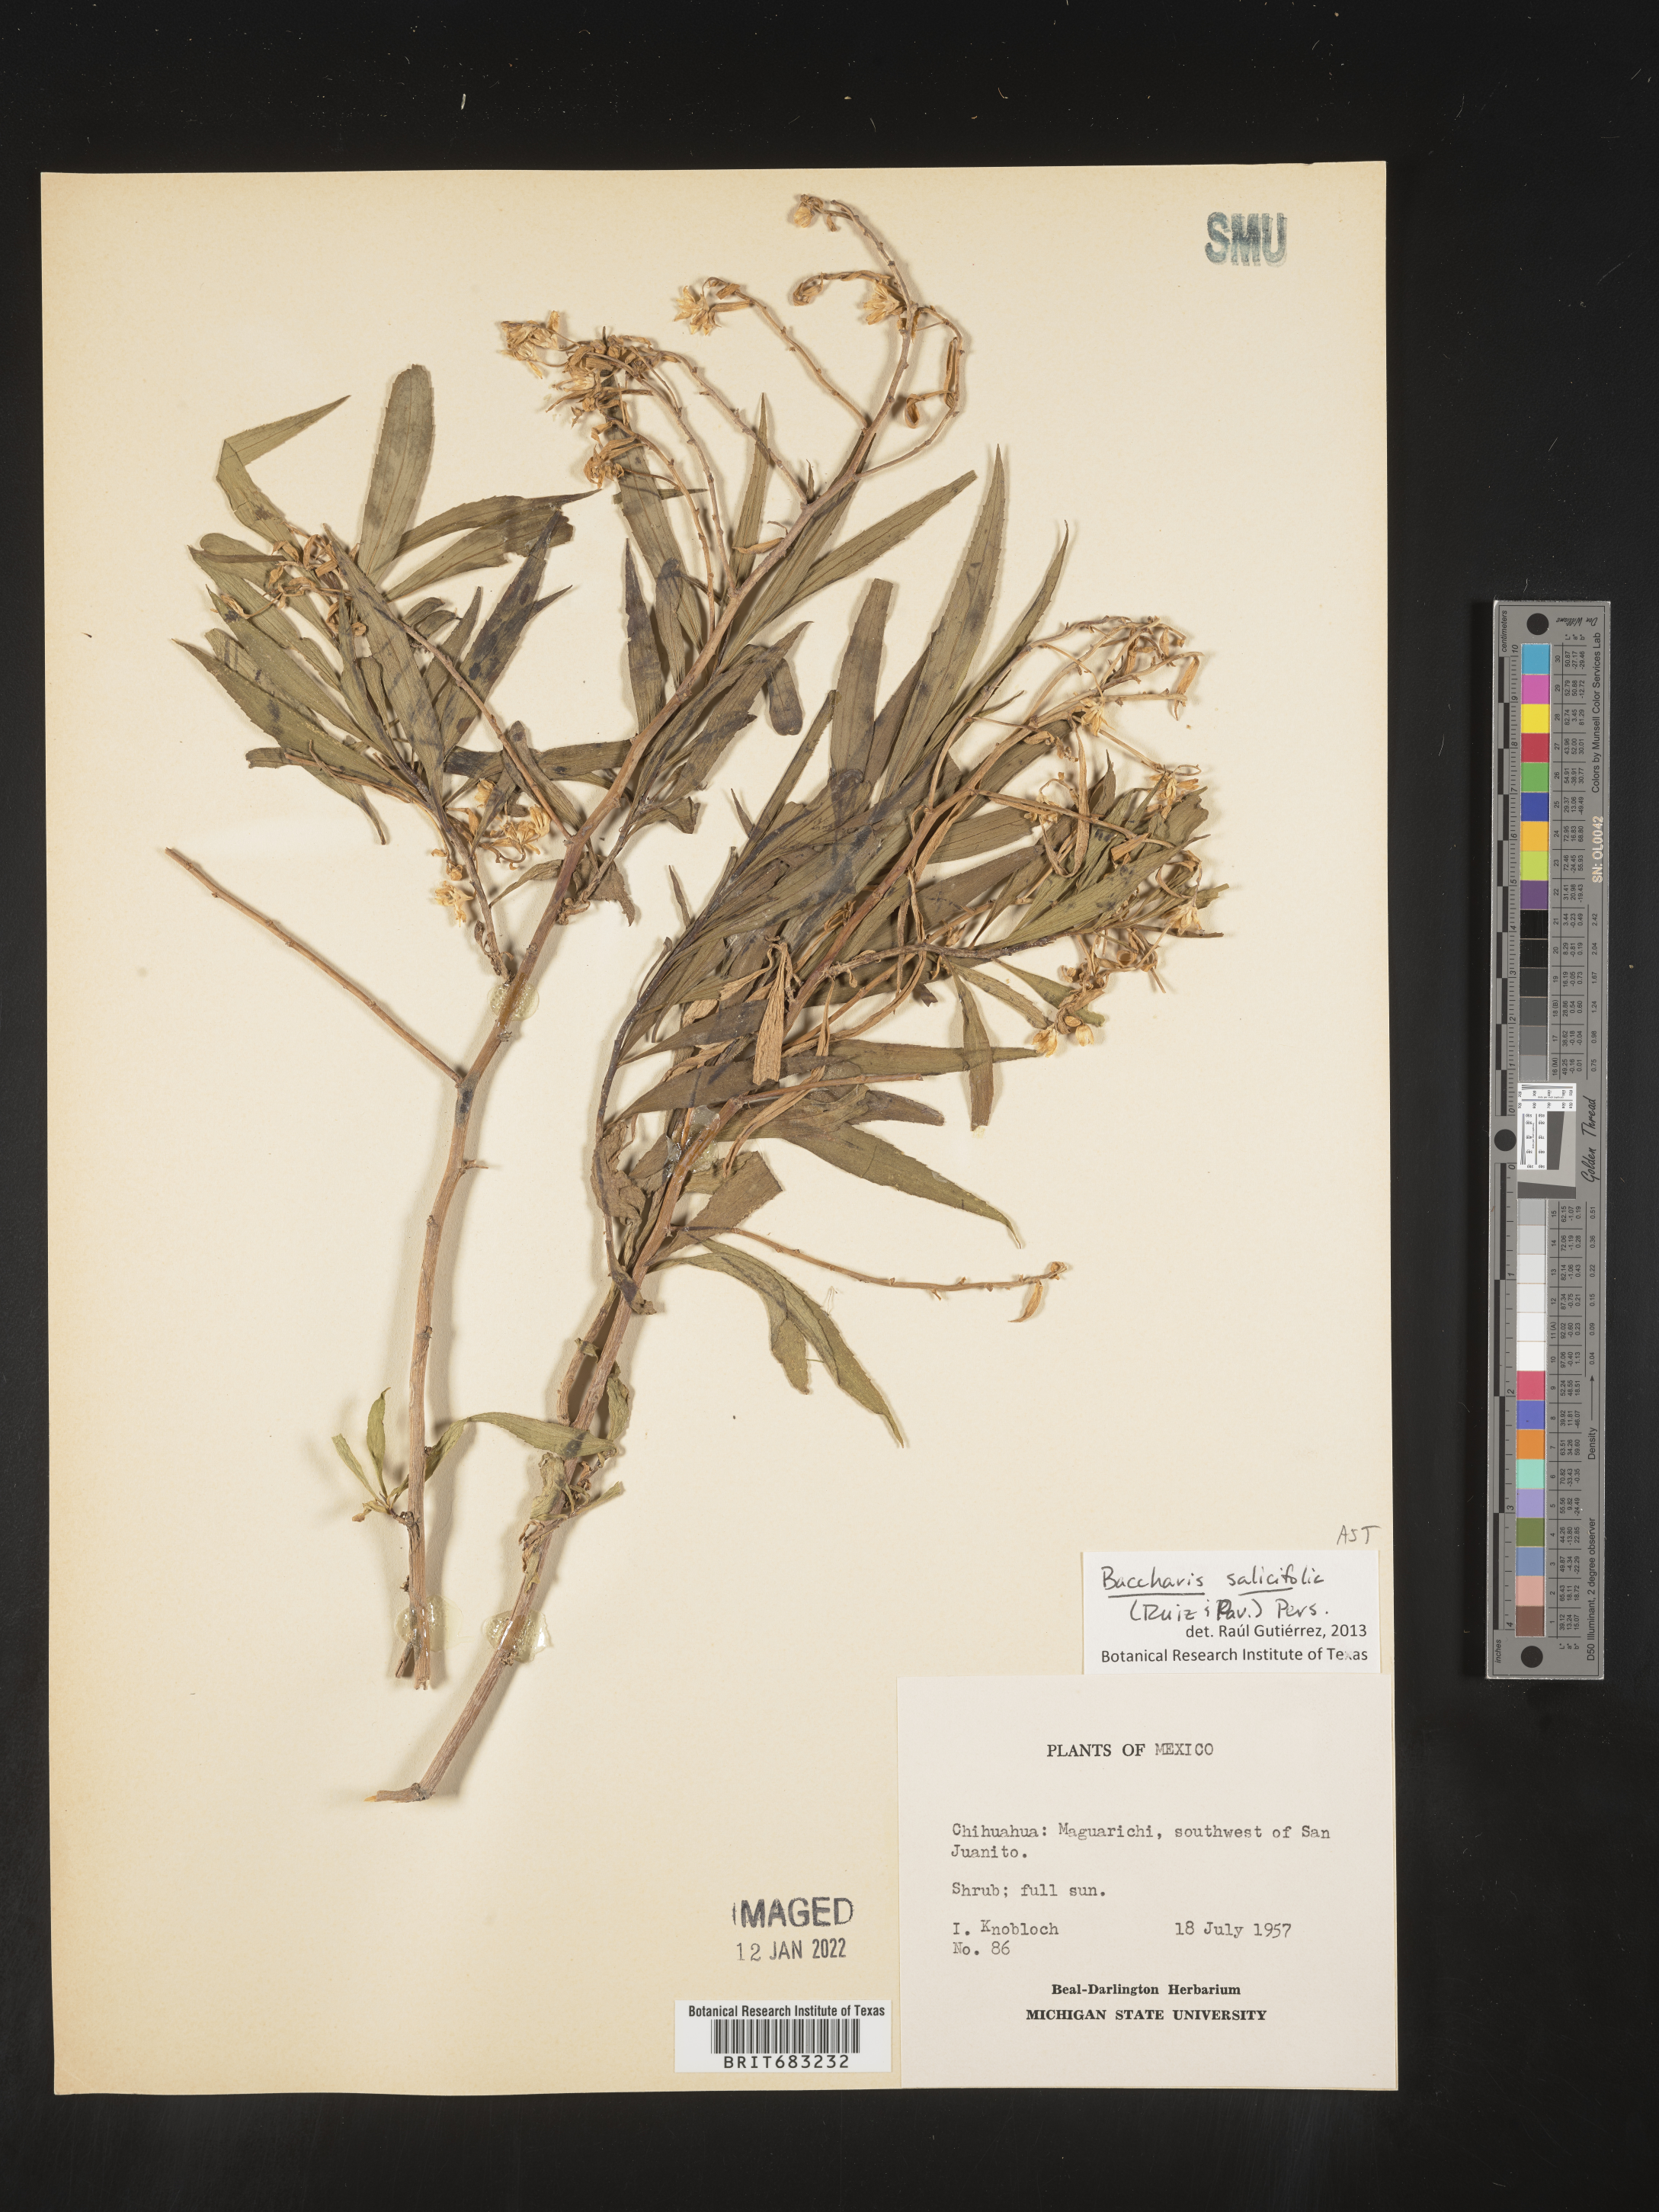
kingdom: Plantae
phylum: Tracheophyta
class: Magnoliopsida
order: Asterales
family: Asteraceae
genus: Baccharis
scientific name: Baccharis salicifolia
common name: Sticky baccharis
